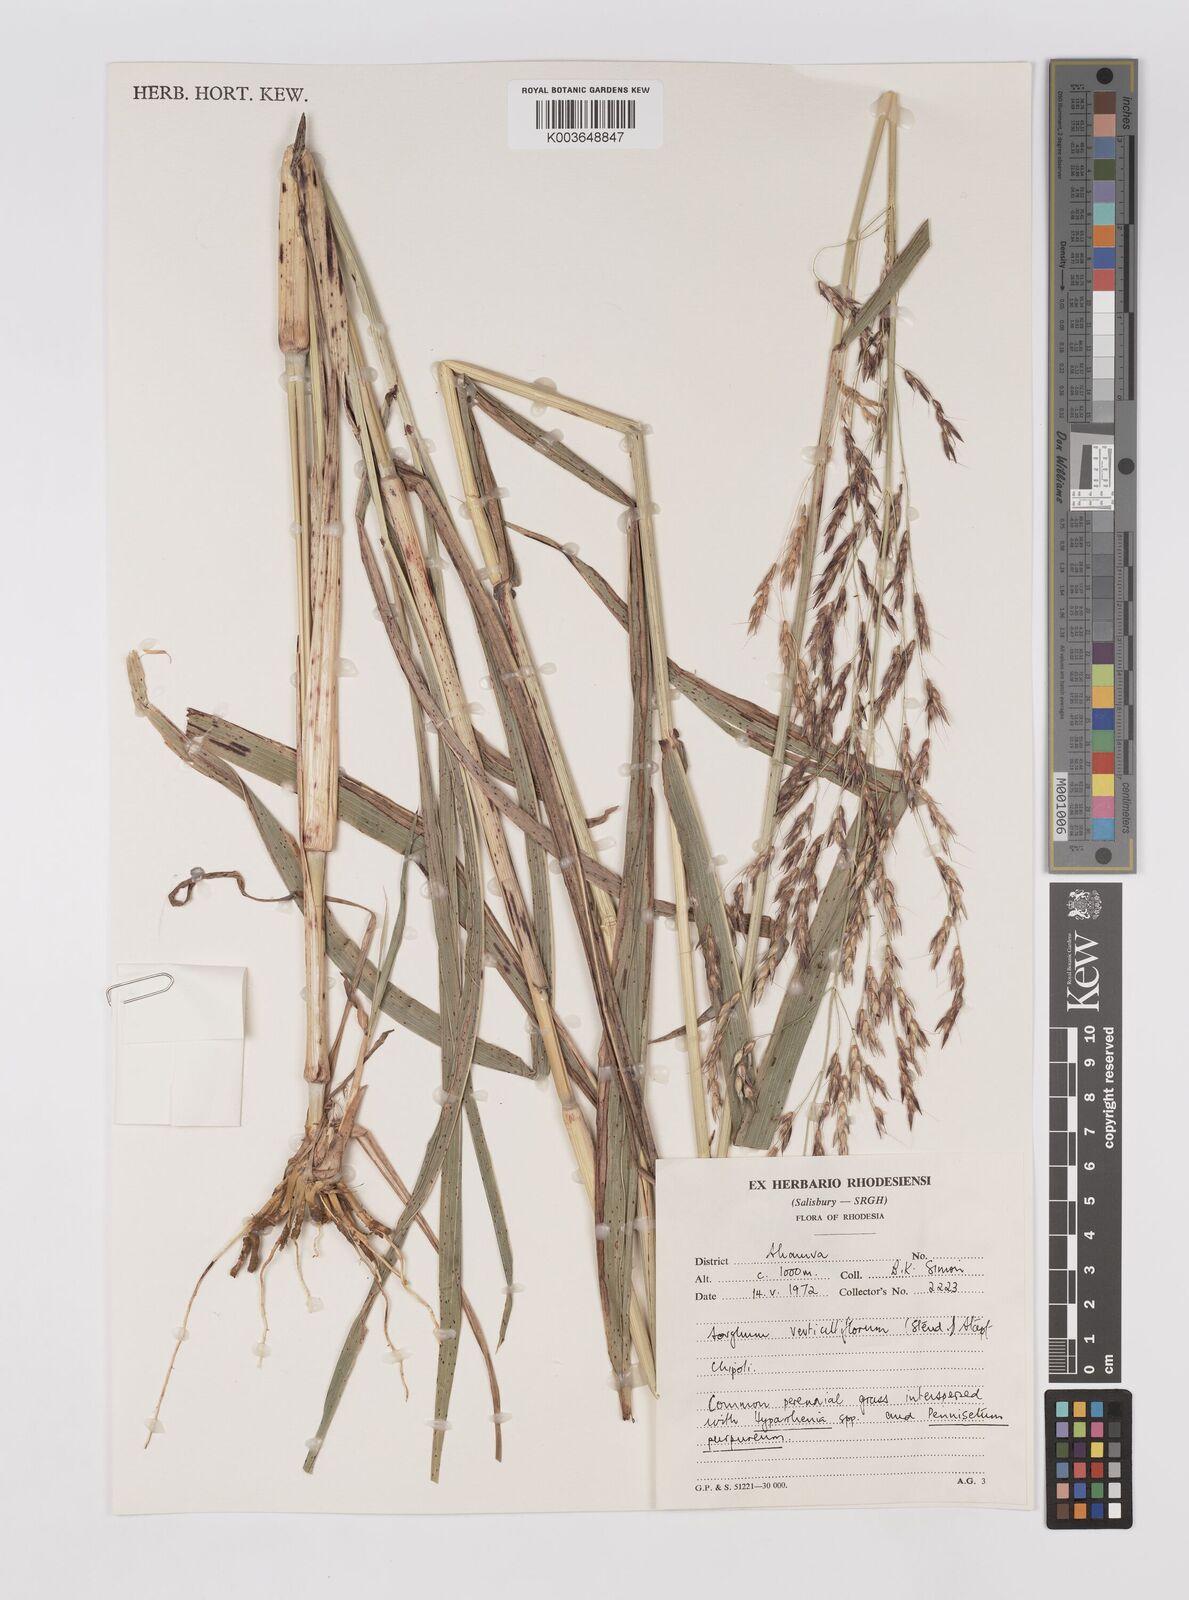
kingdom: Plantae
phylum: Tracheophyta
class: Liliopsida
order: Poales
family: Poaceae
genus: Sorghum
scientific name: Sorghum arundinaceum
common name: Sorghum
